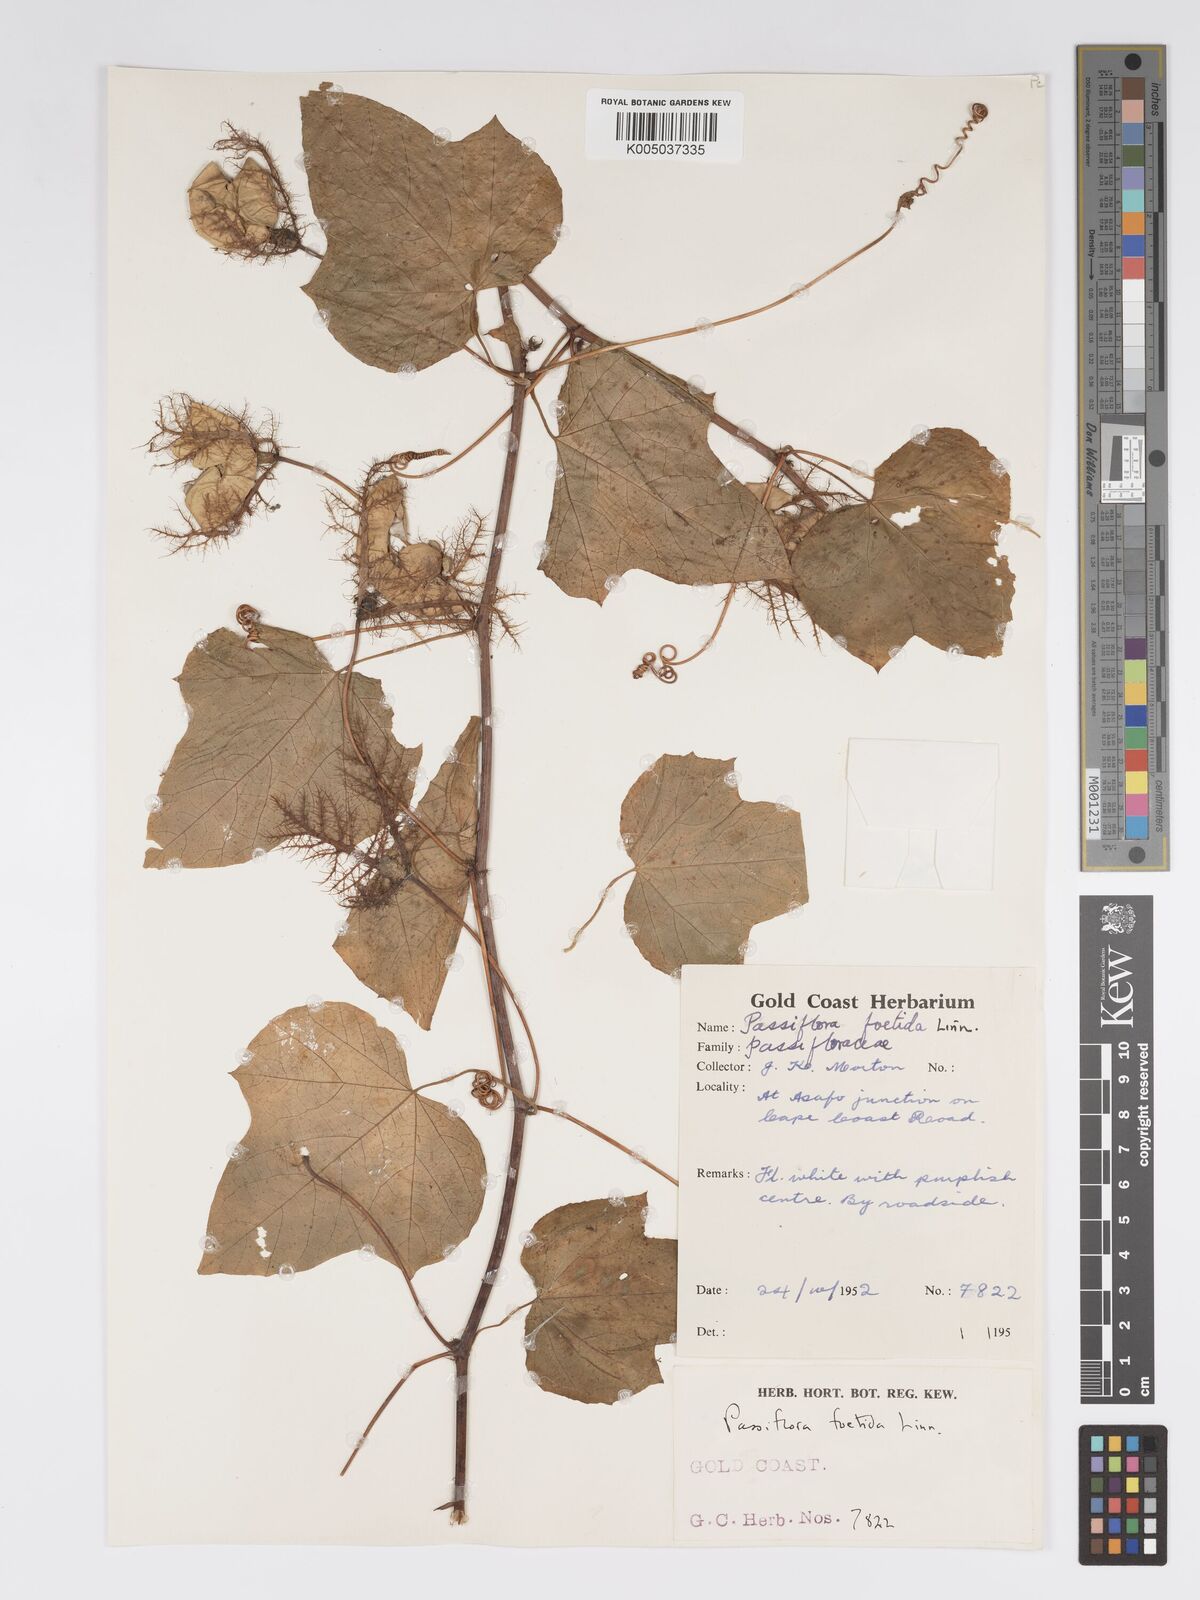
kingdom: Plantae
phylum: Tracheophyta
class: Magnoliopsida
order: Malpighiales
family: Passifloraceae
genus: Passiflora
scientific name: Passiflora foetida
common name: Fetid passionflower
